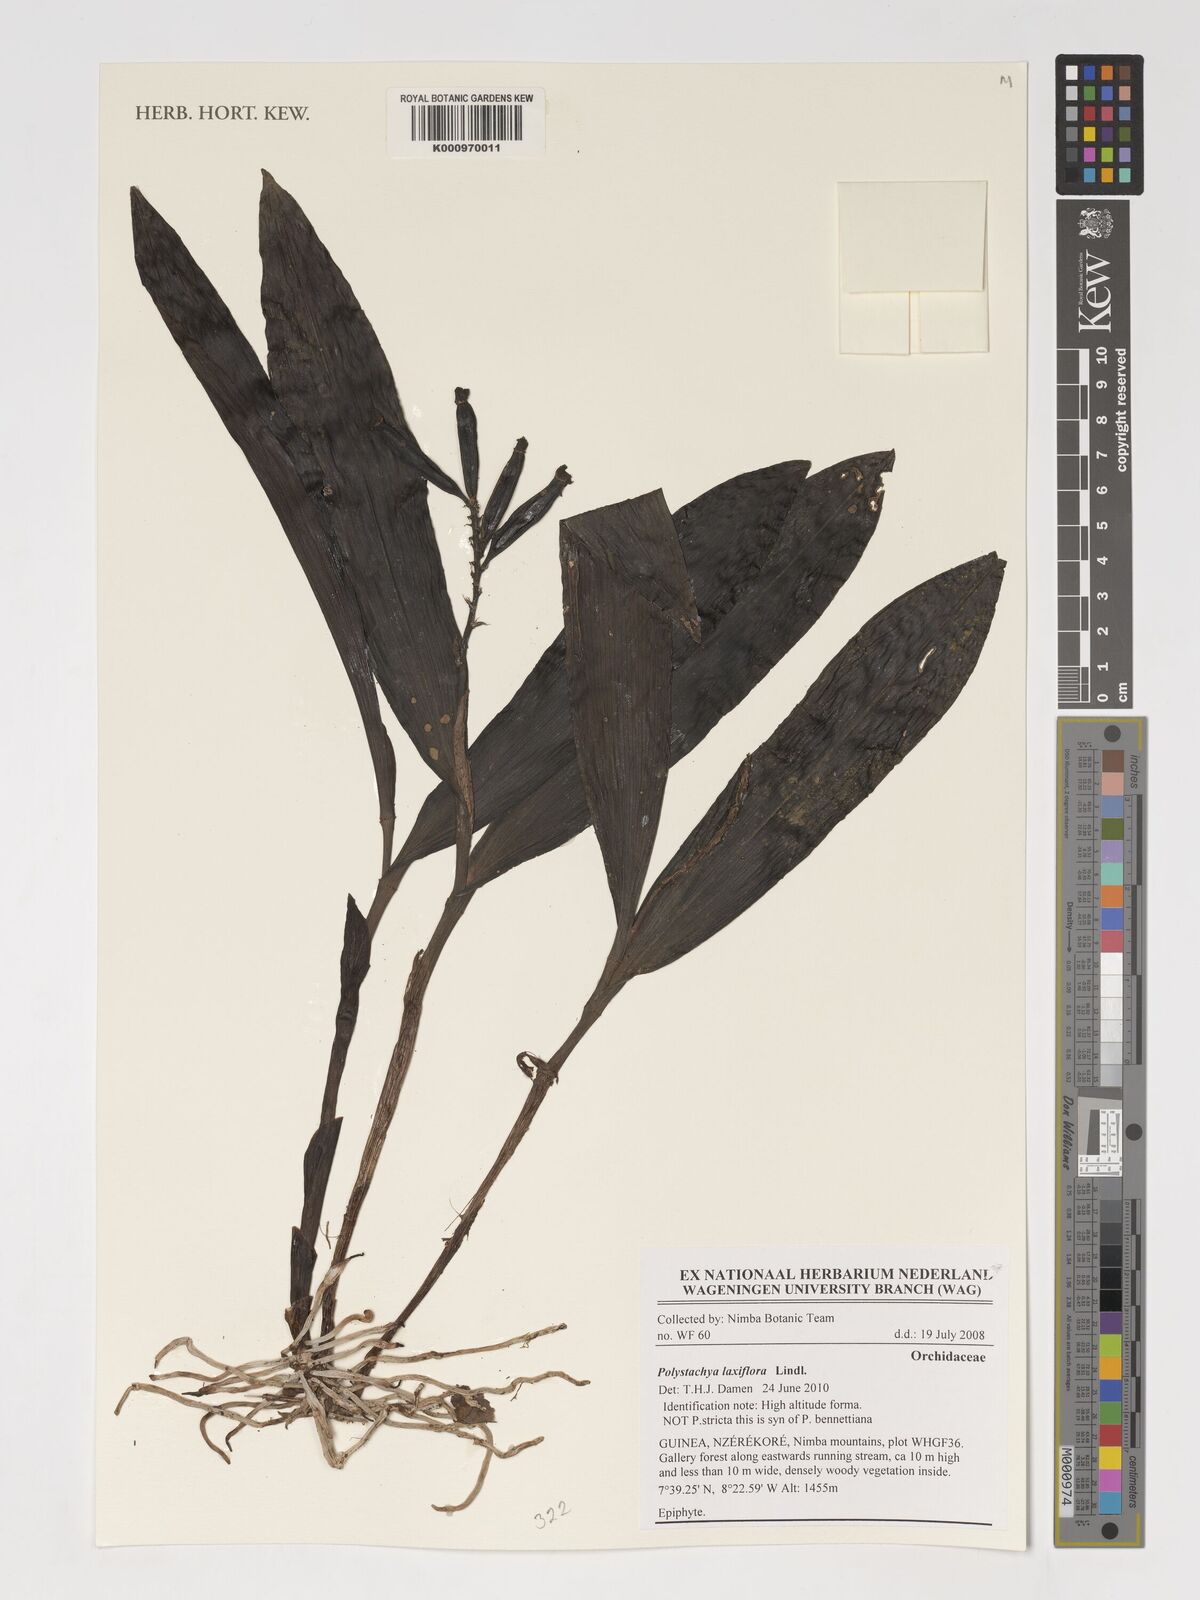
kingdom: Plantae
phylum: Tracheophyta
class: Liliopsida
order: Asparagales
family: Orchidaceae
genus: Polystachya
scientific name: Polystachya laxiflora
